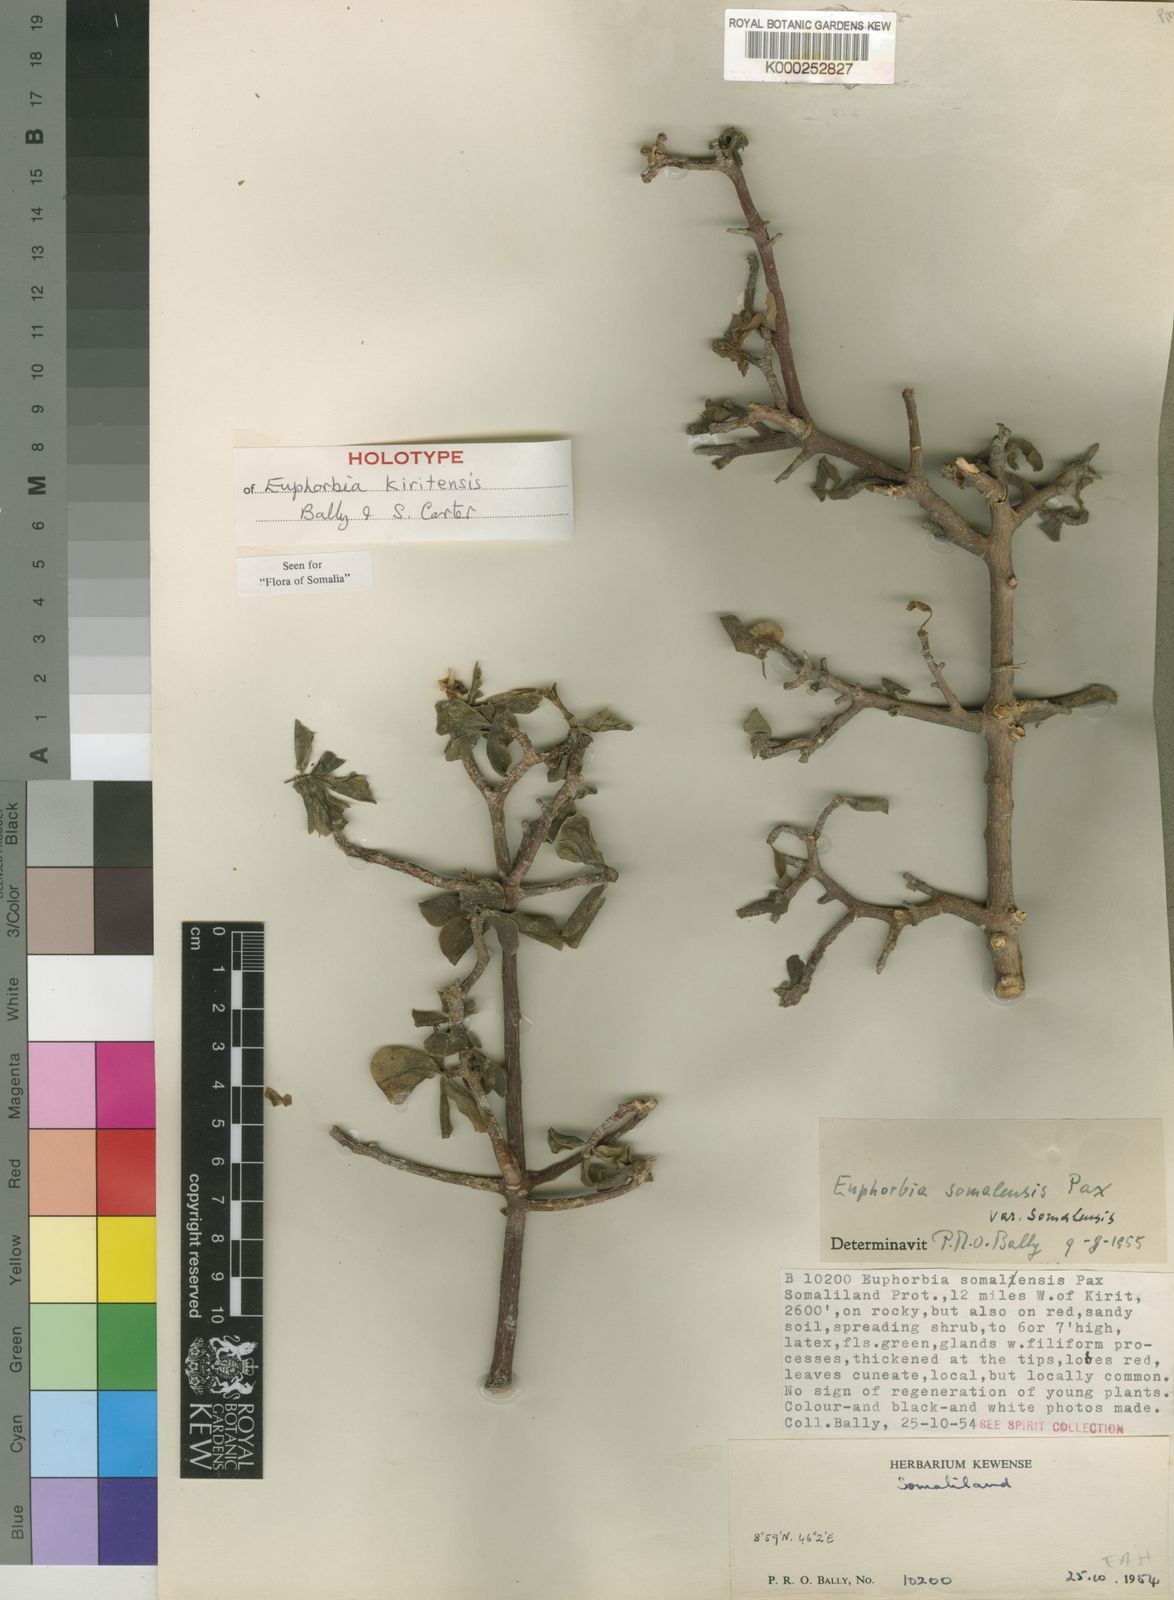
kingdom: Plantae
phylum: Tracheophyta
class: Magnoliopsida
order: Malpighiales
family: Euphorbiaceae
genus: Euphorbia
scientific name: Euphorbia kiritensis
